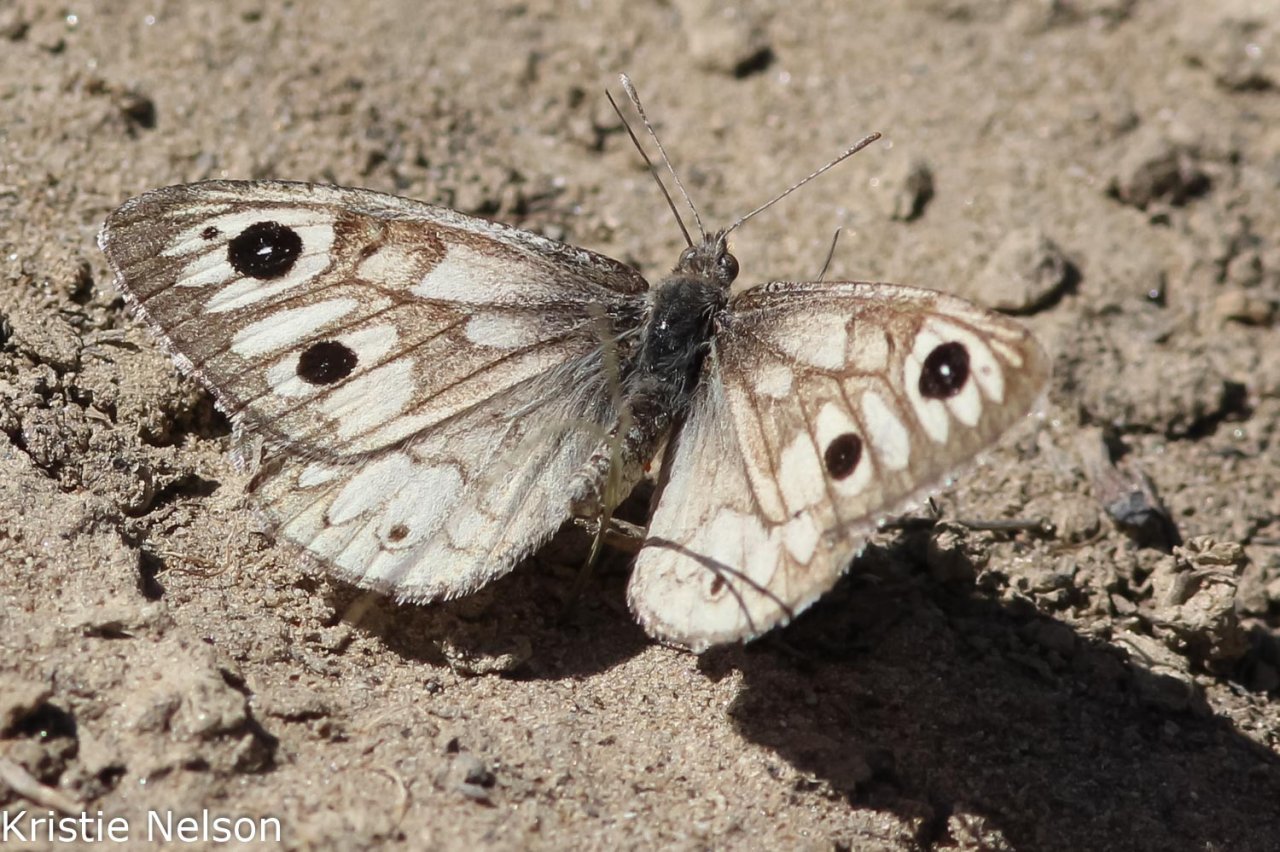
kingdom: Animalia
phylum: Arthropoda
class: Insecta
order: Lepidoptera
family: Nymphalidae
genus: Neominois
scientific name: Neominois ridingsii
